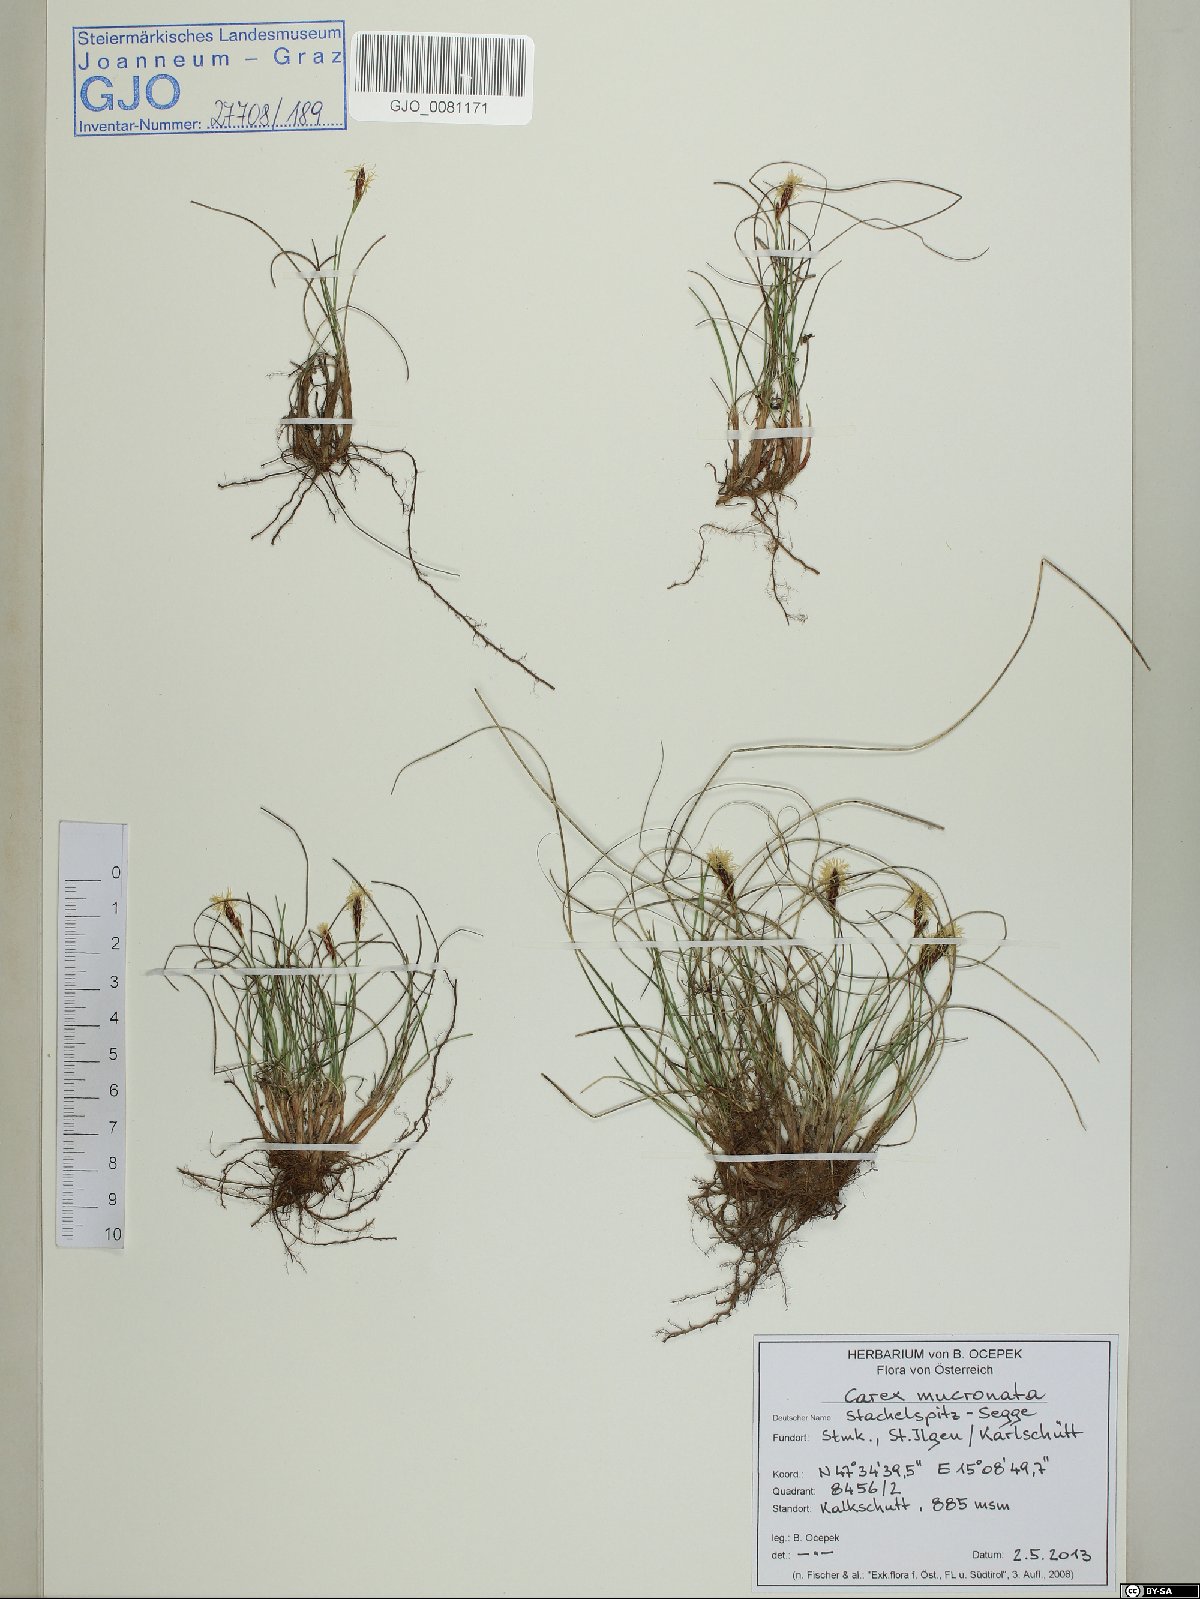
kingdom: Plantae
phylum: Tracheophyta
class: Liliopsida
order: Poales
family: Cyperaceae
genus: Carex
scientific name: Carex mucronata
